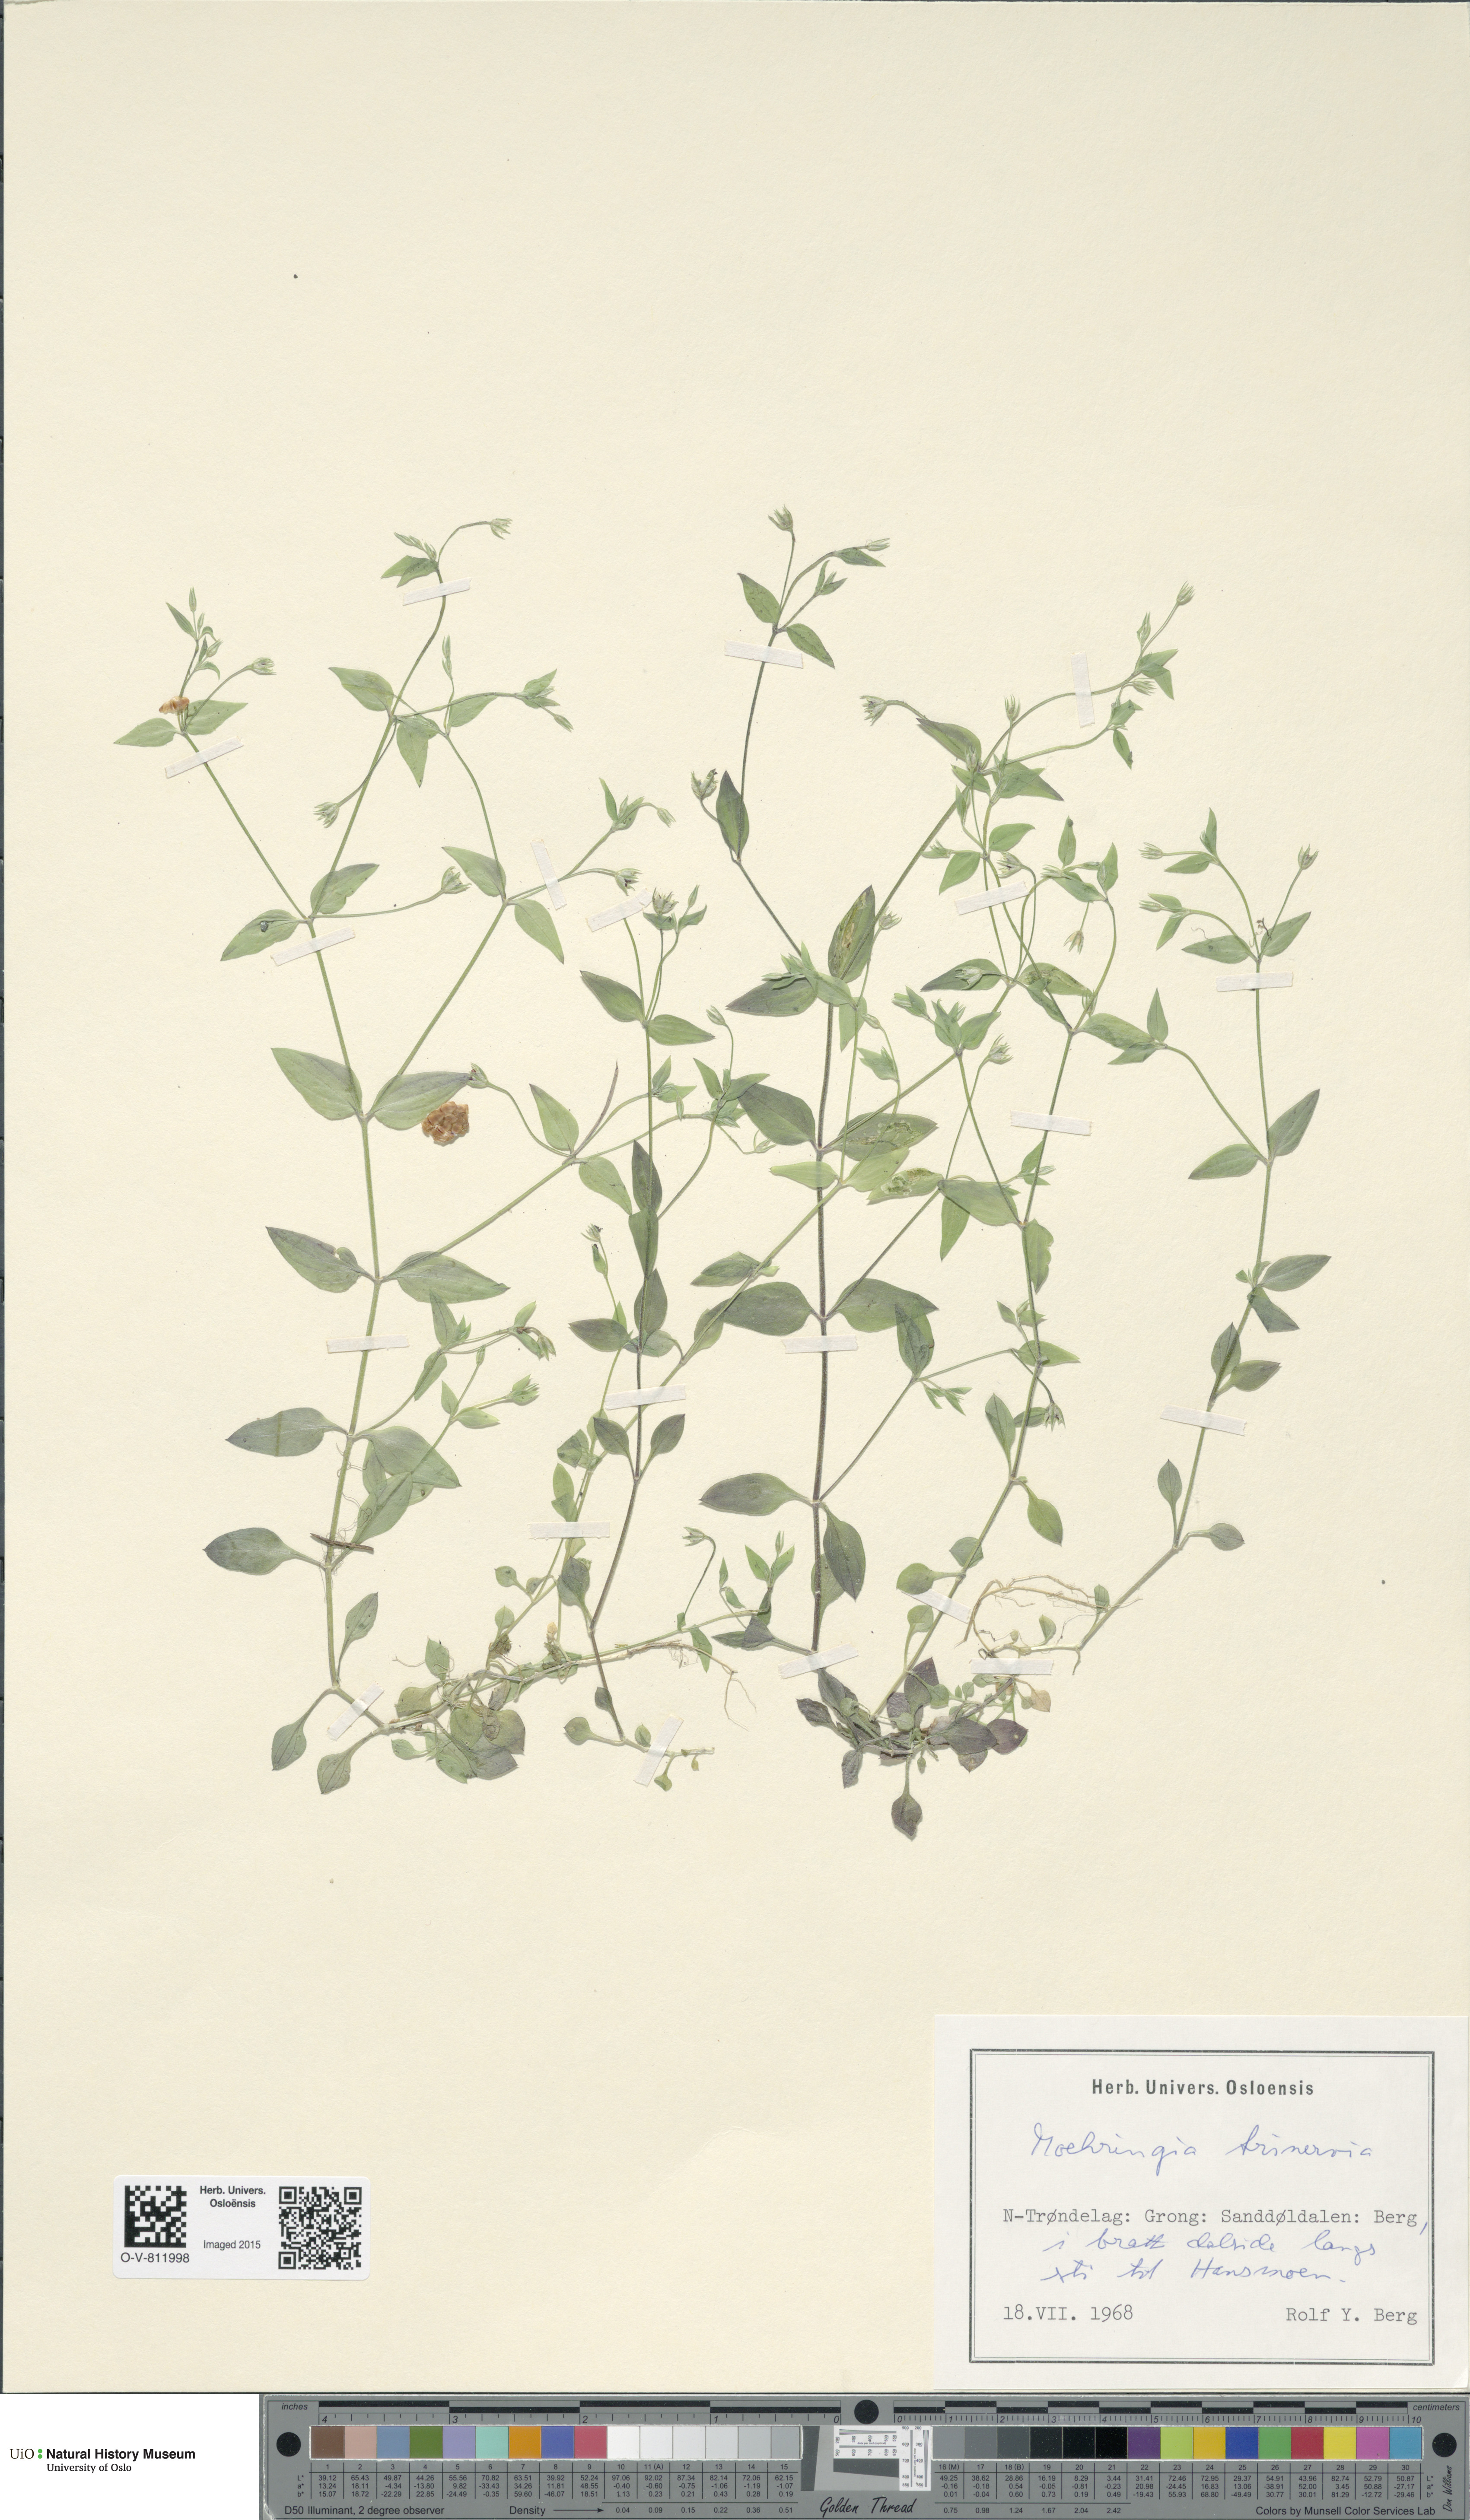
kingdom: Plantae
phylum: Tracheophyta
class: Magnoliopsida
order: Caryophyllales
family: Caryophyllaceae
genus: Moehringia
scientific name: Moehringia trinervia
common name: Three-nerved sandwort
